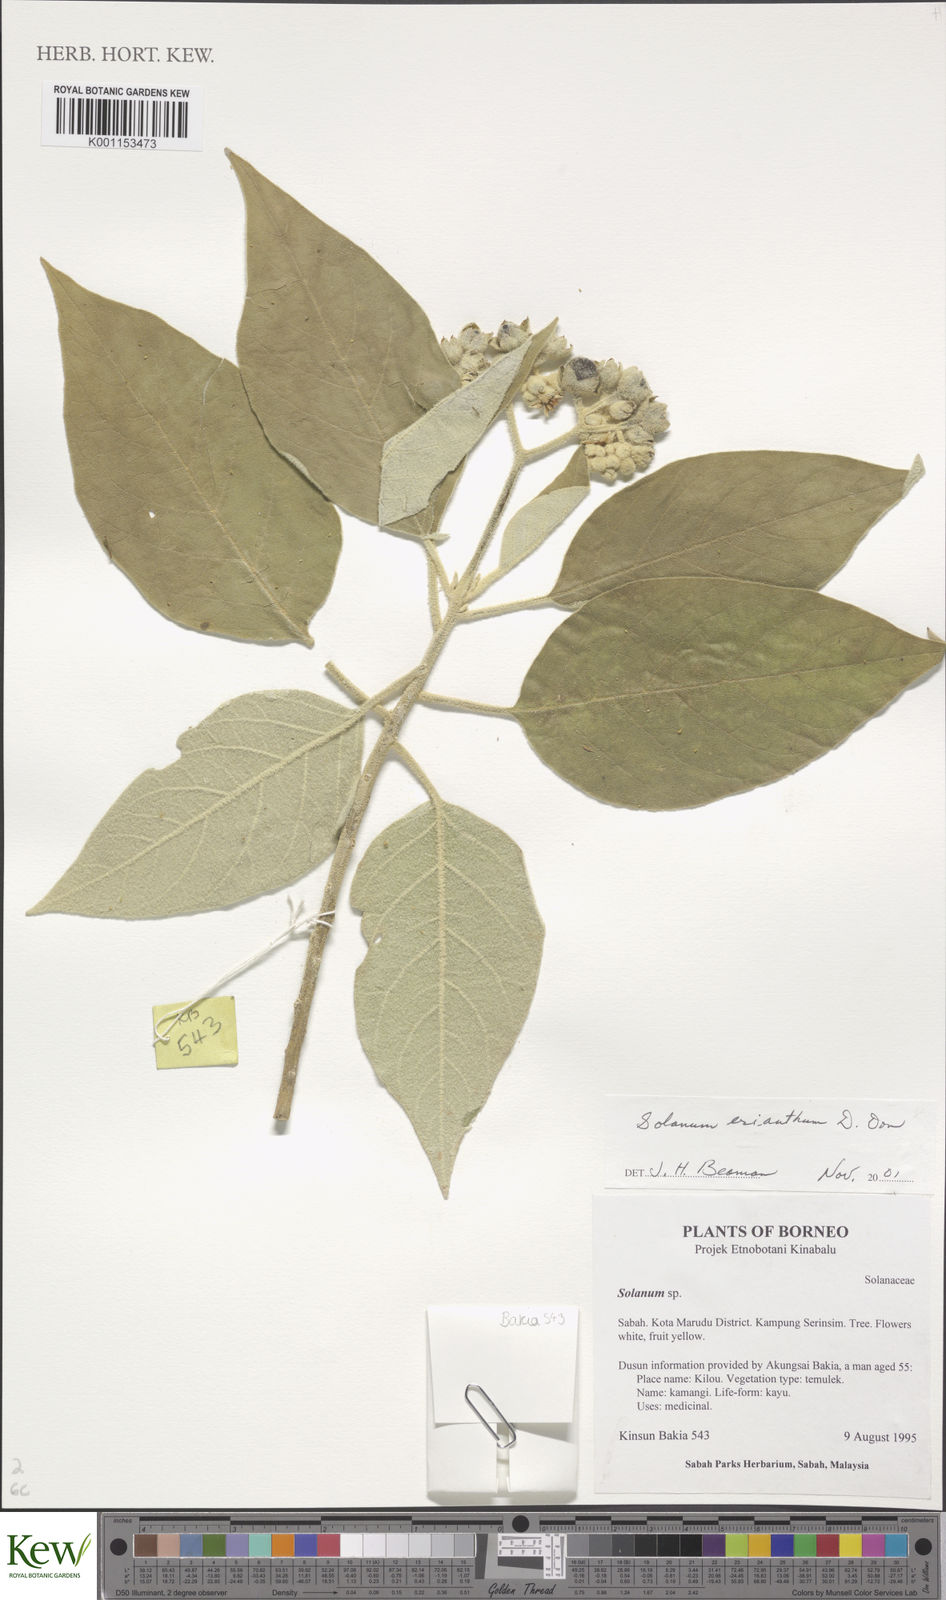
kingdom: Plantae
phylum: Tracheophyta
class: Magnoliopsida
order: Solanales
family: Solanaceae
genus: Solanum
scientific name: Solanum erianthum
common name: Tobacco-tree
